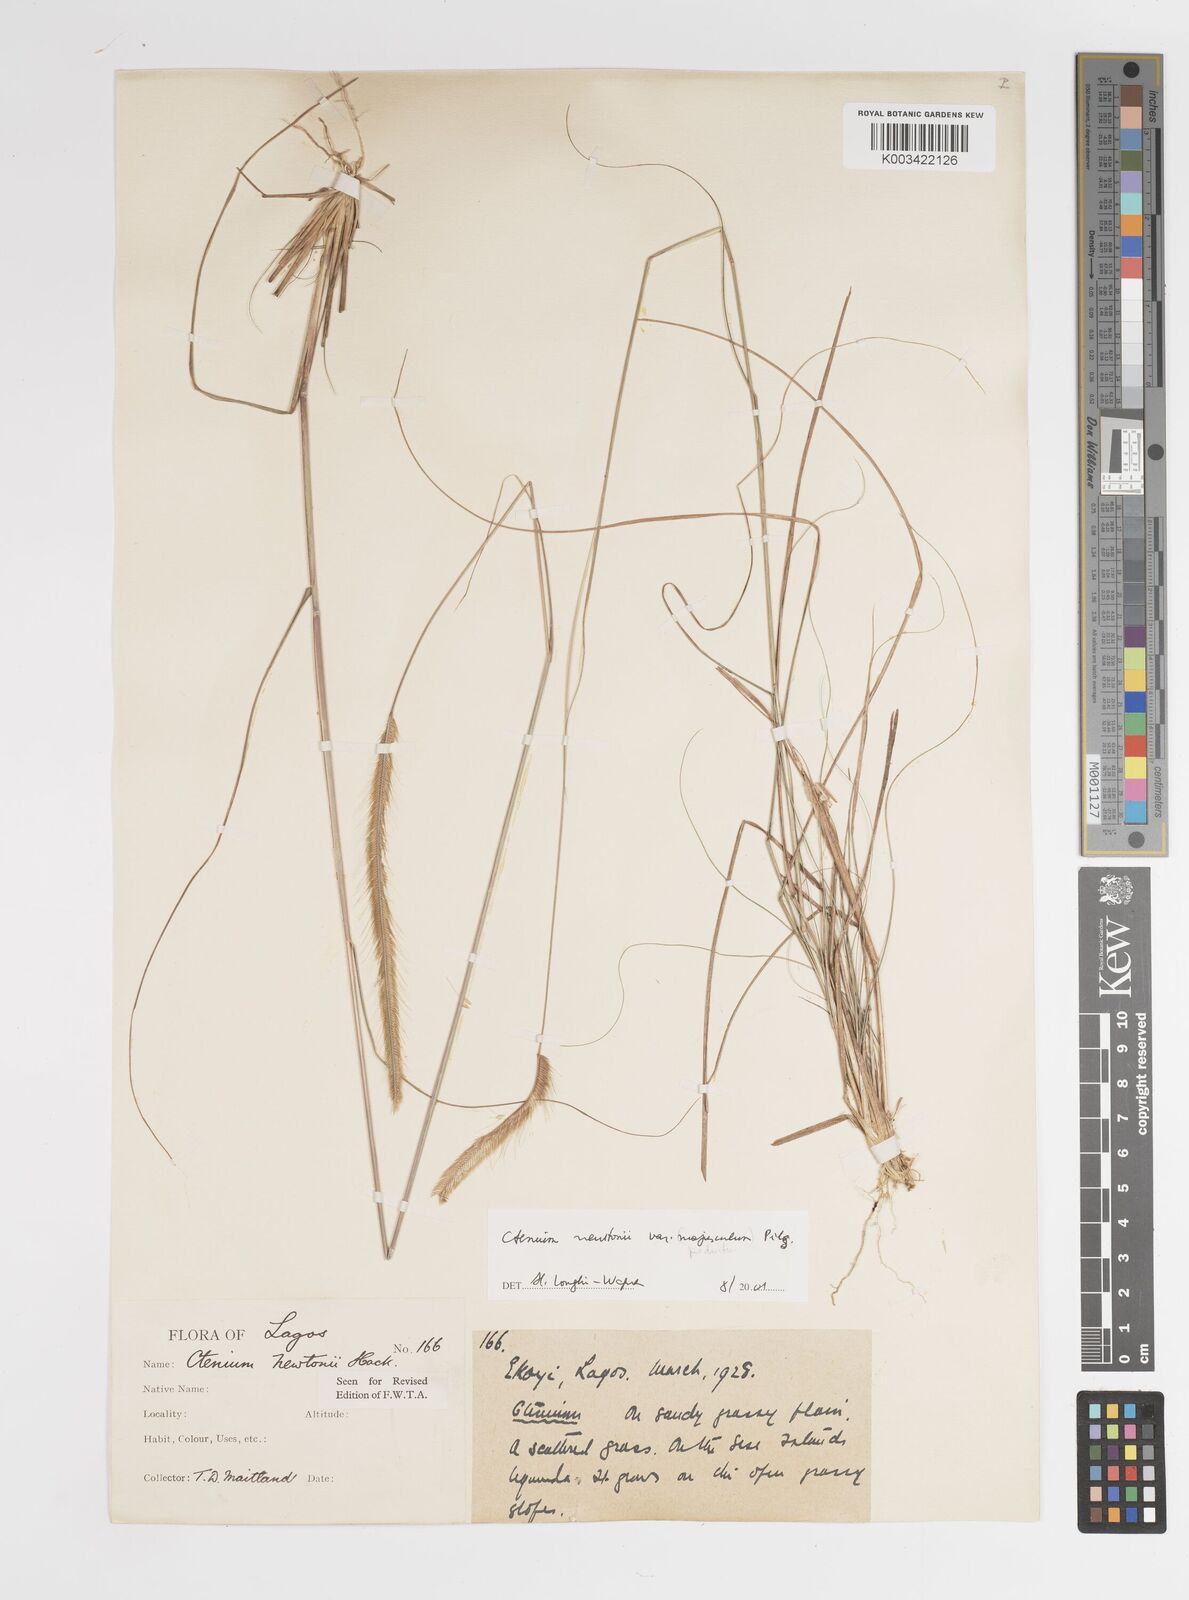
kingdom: Plantae
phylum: Tracheophyta
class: Liliopsida
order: Poales
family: Poaceae
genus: Ctenium
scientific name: Ctenium newtonii
